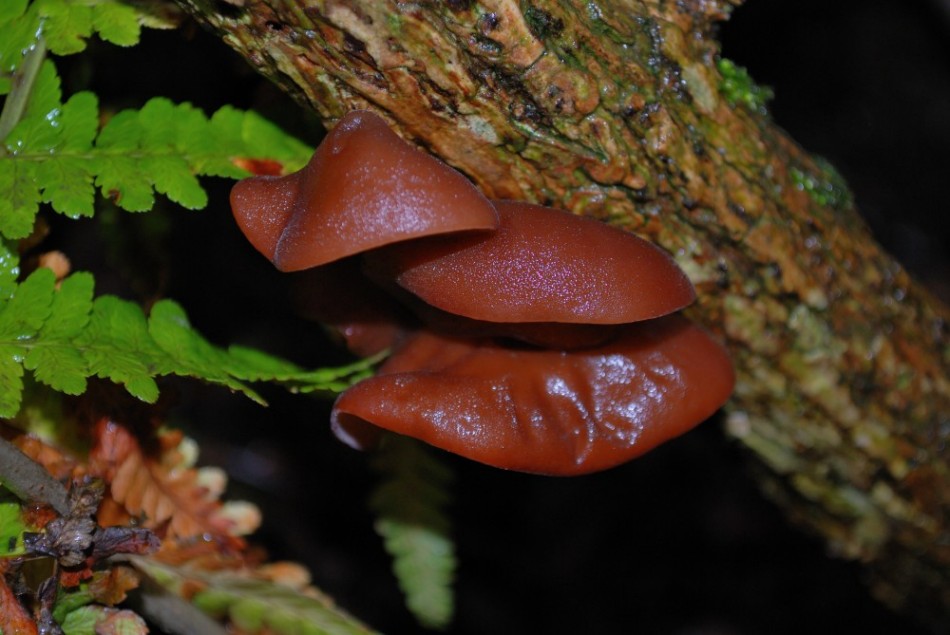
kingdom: Fungi
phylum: Basidiomycota
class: Agaricomycetes
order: Auriculariales
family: Auriculariaceae
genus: Auricularia
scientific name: Auricularia auricula-judae
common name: almindelig judasøre
